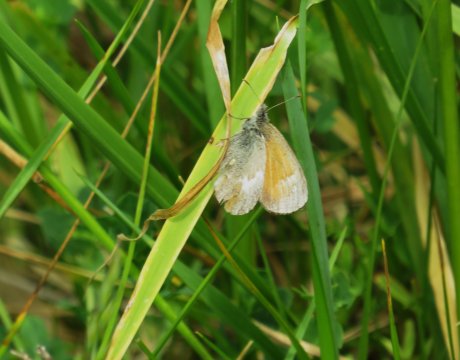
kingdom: Animalia
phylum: Arthropoda
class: Insecta
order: Lepidoptera
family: Nymphalidae
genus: Coenonympha
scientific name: Coenonympha california
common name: California Ringlet
